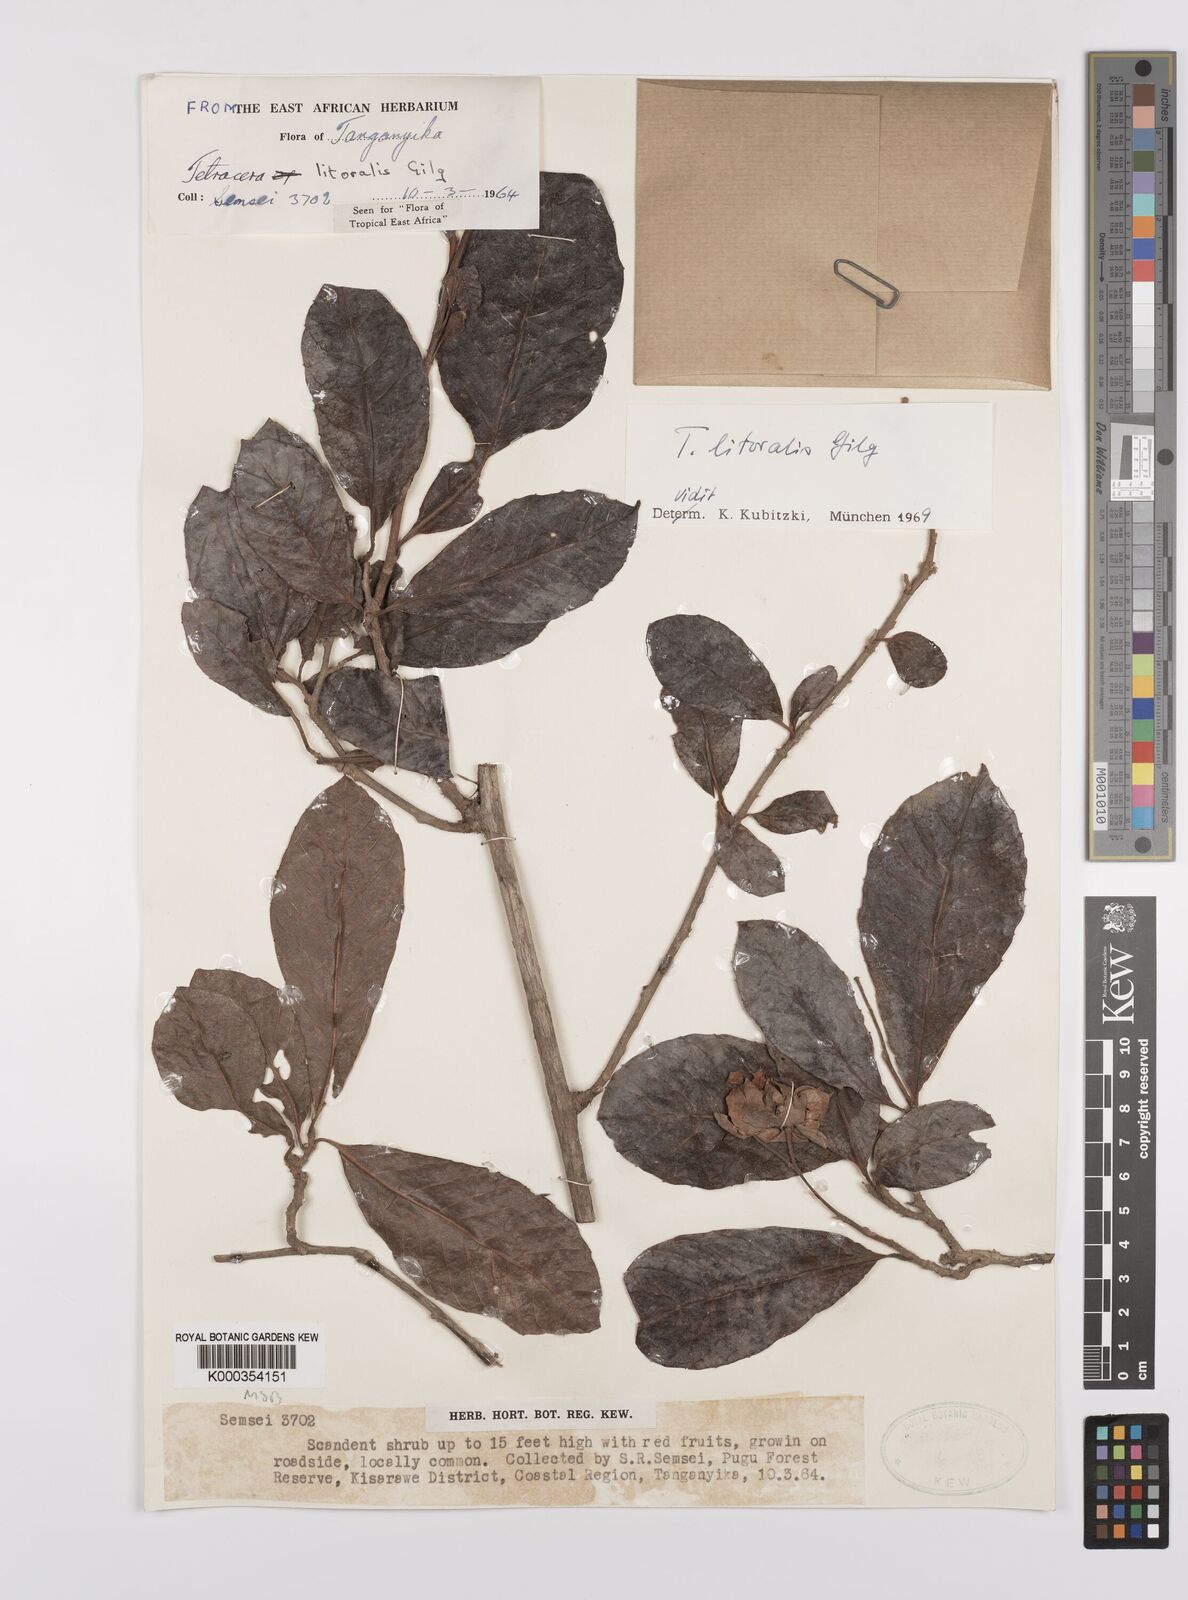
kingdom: Plantae
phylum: Tracheophyta
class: Magnoliopsida
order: Dilleniales
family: Dilleniaceae
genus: Tetracera
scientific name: Tetracera litoralis
